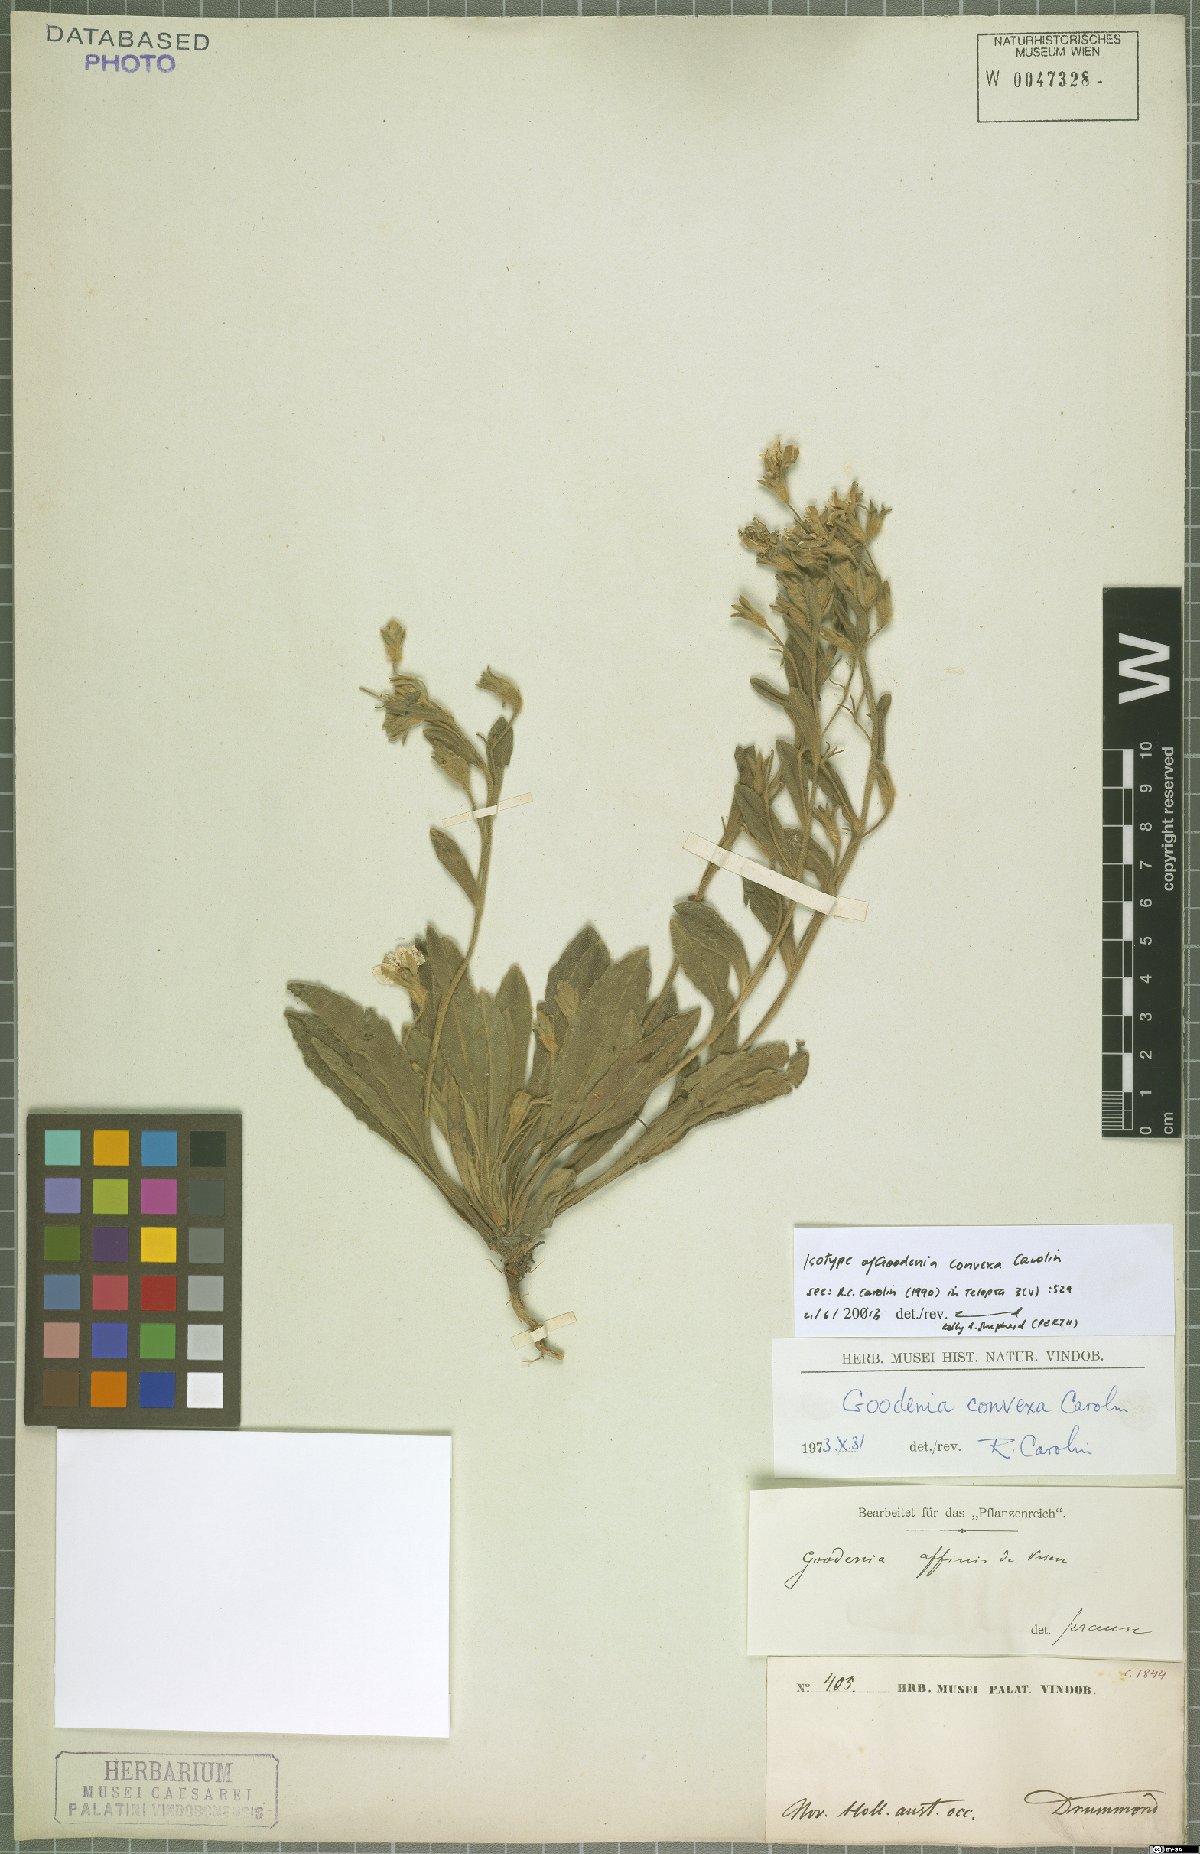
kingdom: Plantae
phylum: Tracheophyta
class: Magnoliopsida
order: Asterales
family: Goodeniaceae
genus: Goodenia
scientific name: Goodenia convexa
